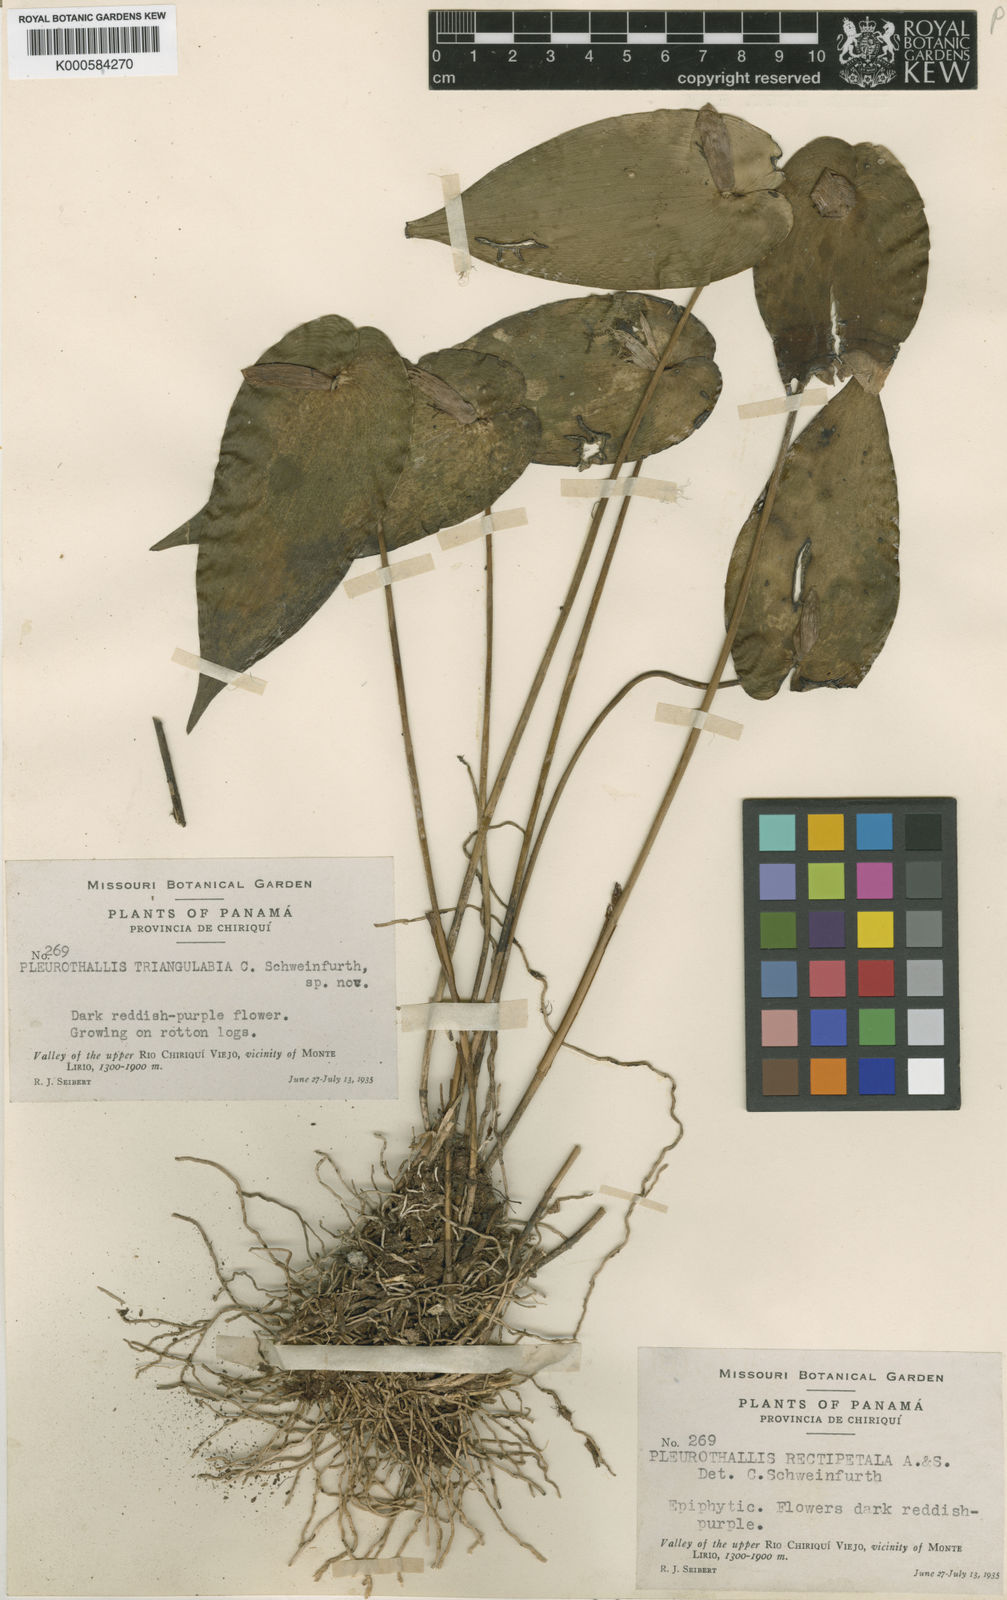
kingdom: Plantae
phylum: Tracheophyta
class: Liliopsida
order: Asparagales
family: Orchidaceae
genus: Pleurothallis
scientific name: Pleurothallis
